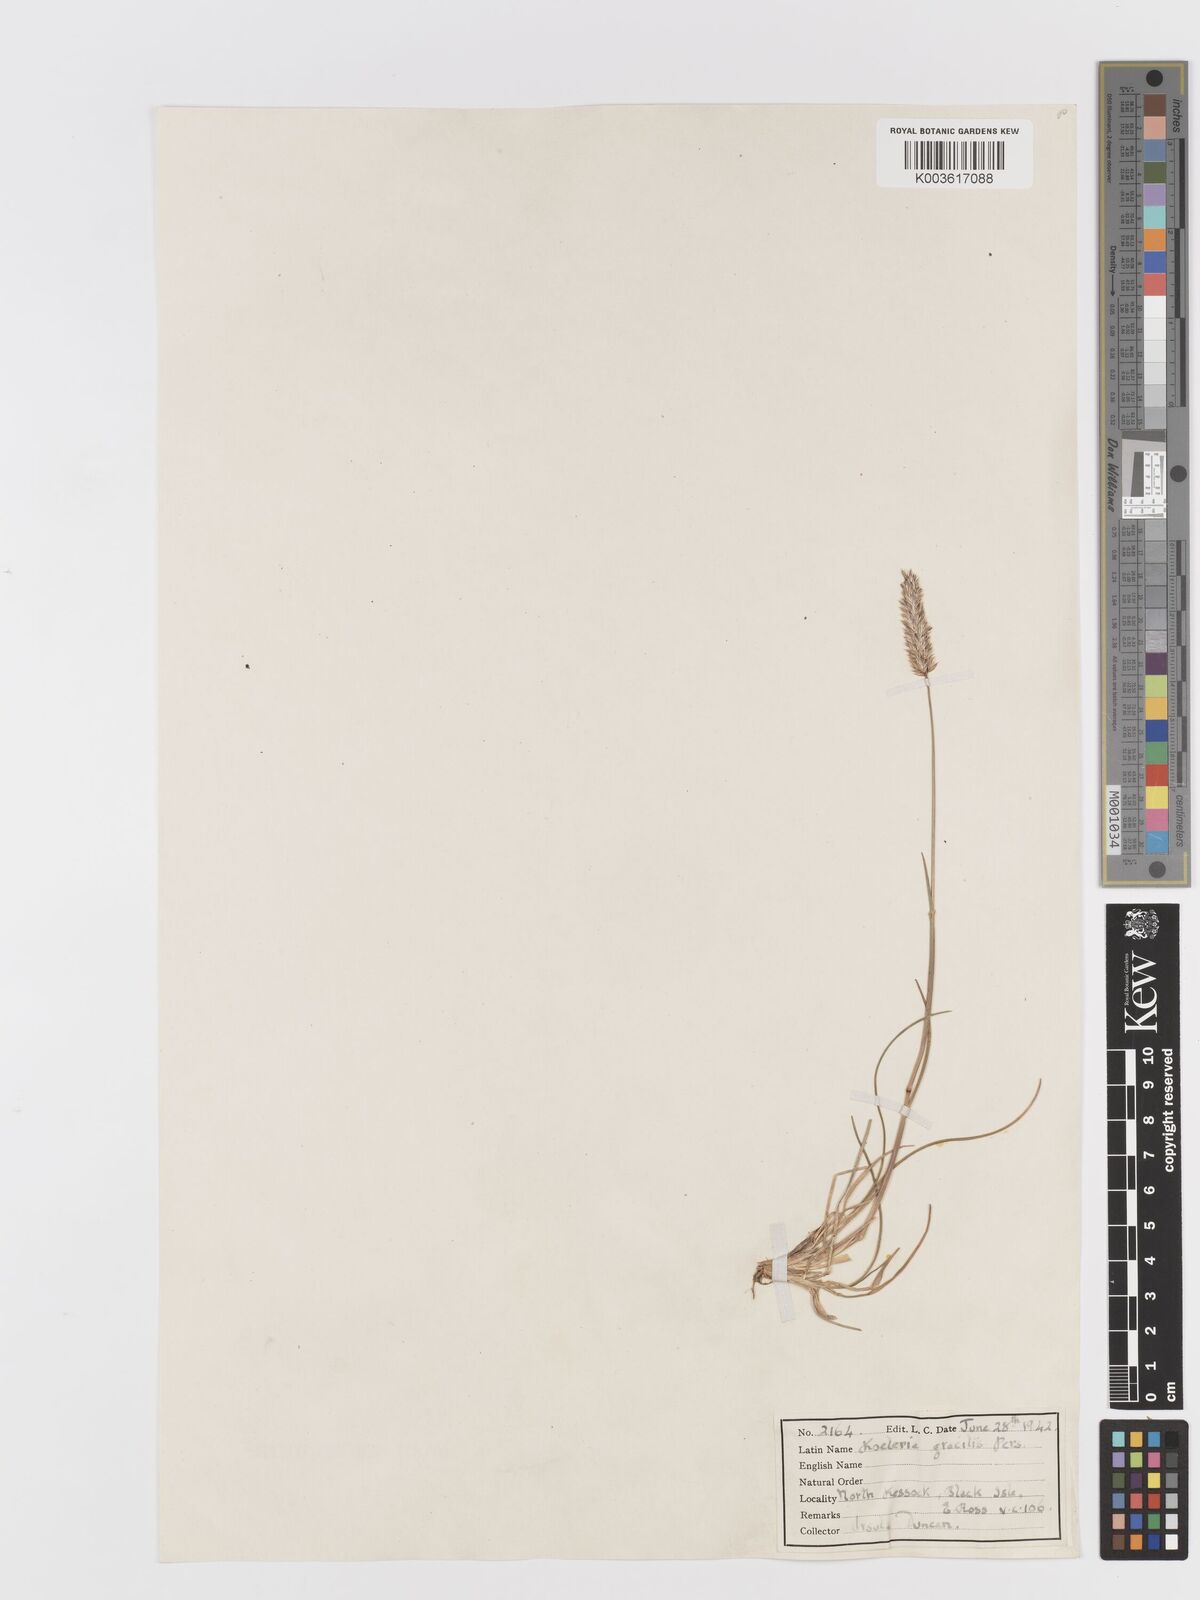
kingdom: Plantae
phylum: Tracheophyta
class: Liliopsida
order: Poales
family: Poaceae
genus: Koeleria
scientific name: Koeleria macrantha
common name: Crested hair-grass
